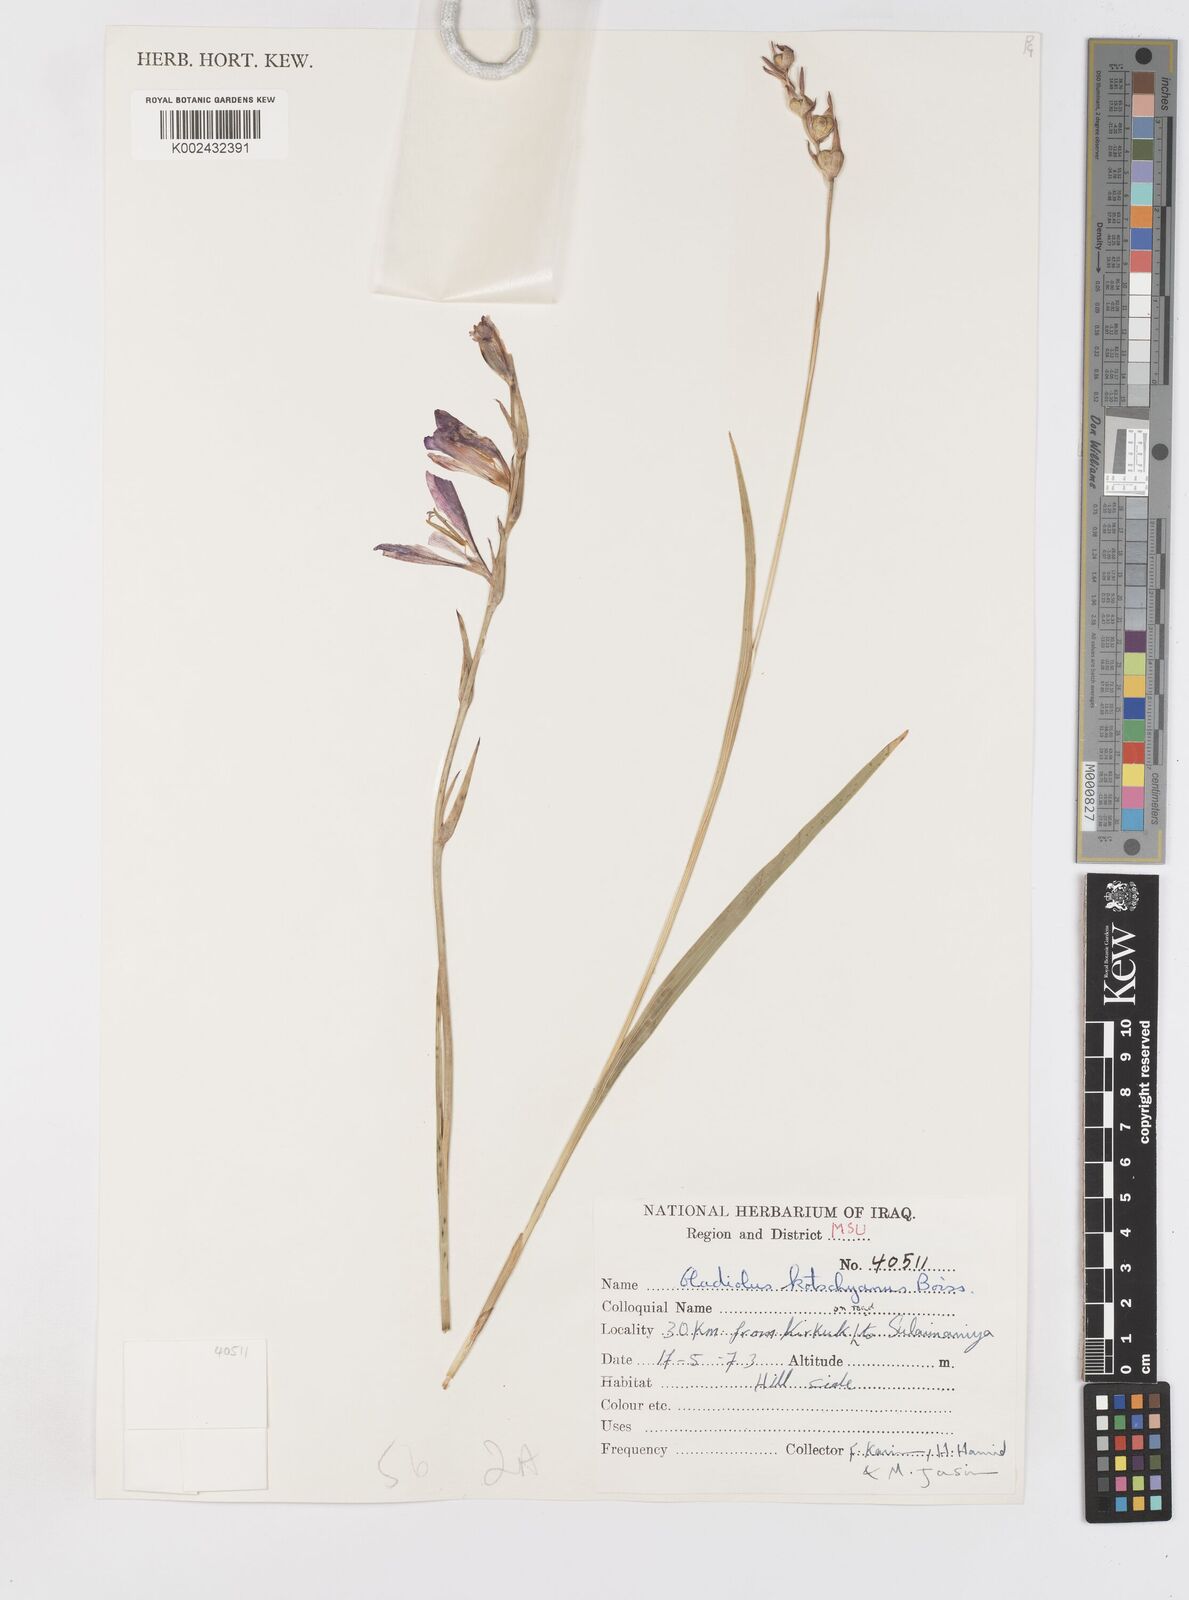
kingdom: Plantae
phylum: Tracheophyta
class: Liliopsida
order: Asparagales
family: Iridaceae
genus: Gladiolus
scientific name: Gladiolus kotschyanus
